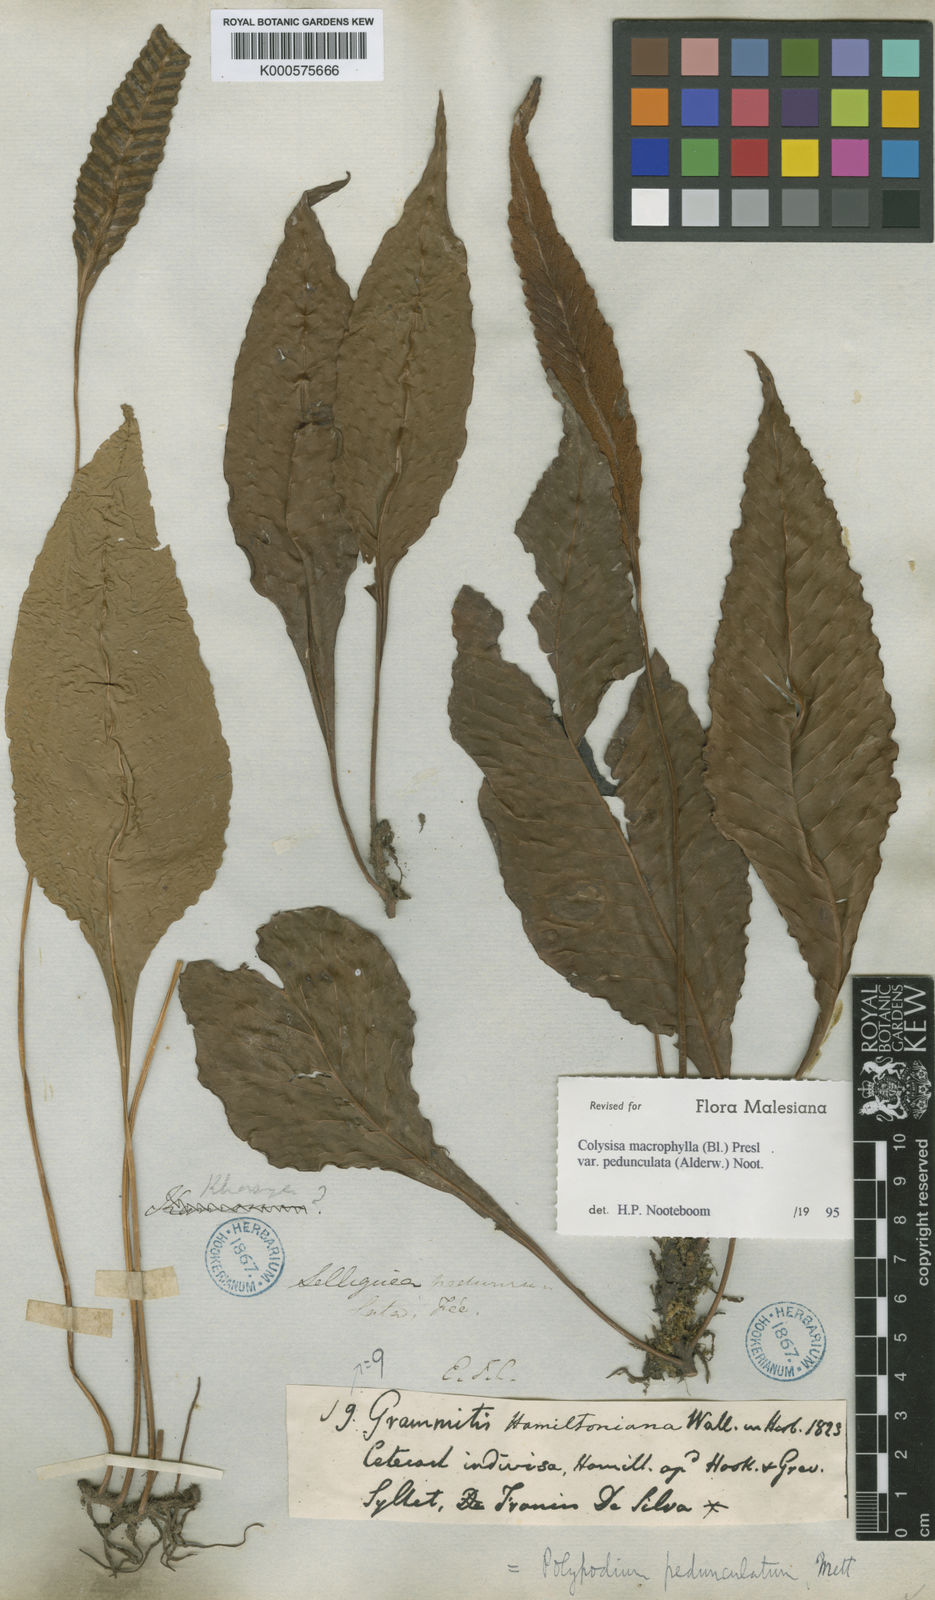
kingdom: Plantae
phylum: Tracheophyta
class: Polypodiopsida
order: Polypodiales
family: Polypodiaceae
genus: Leptochilus
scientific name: Leptochilus macrophyllus
